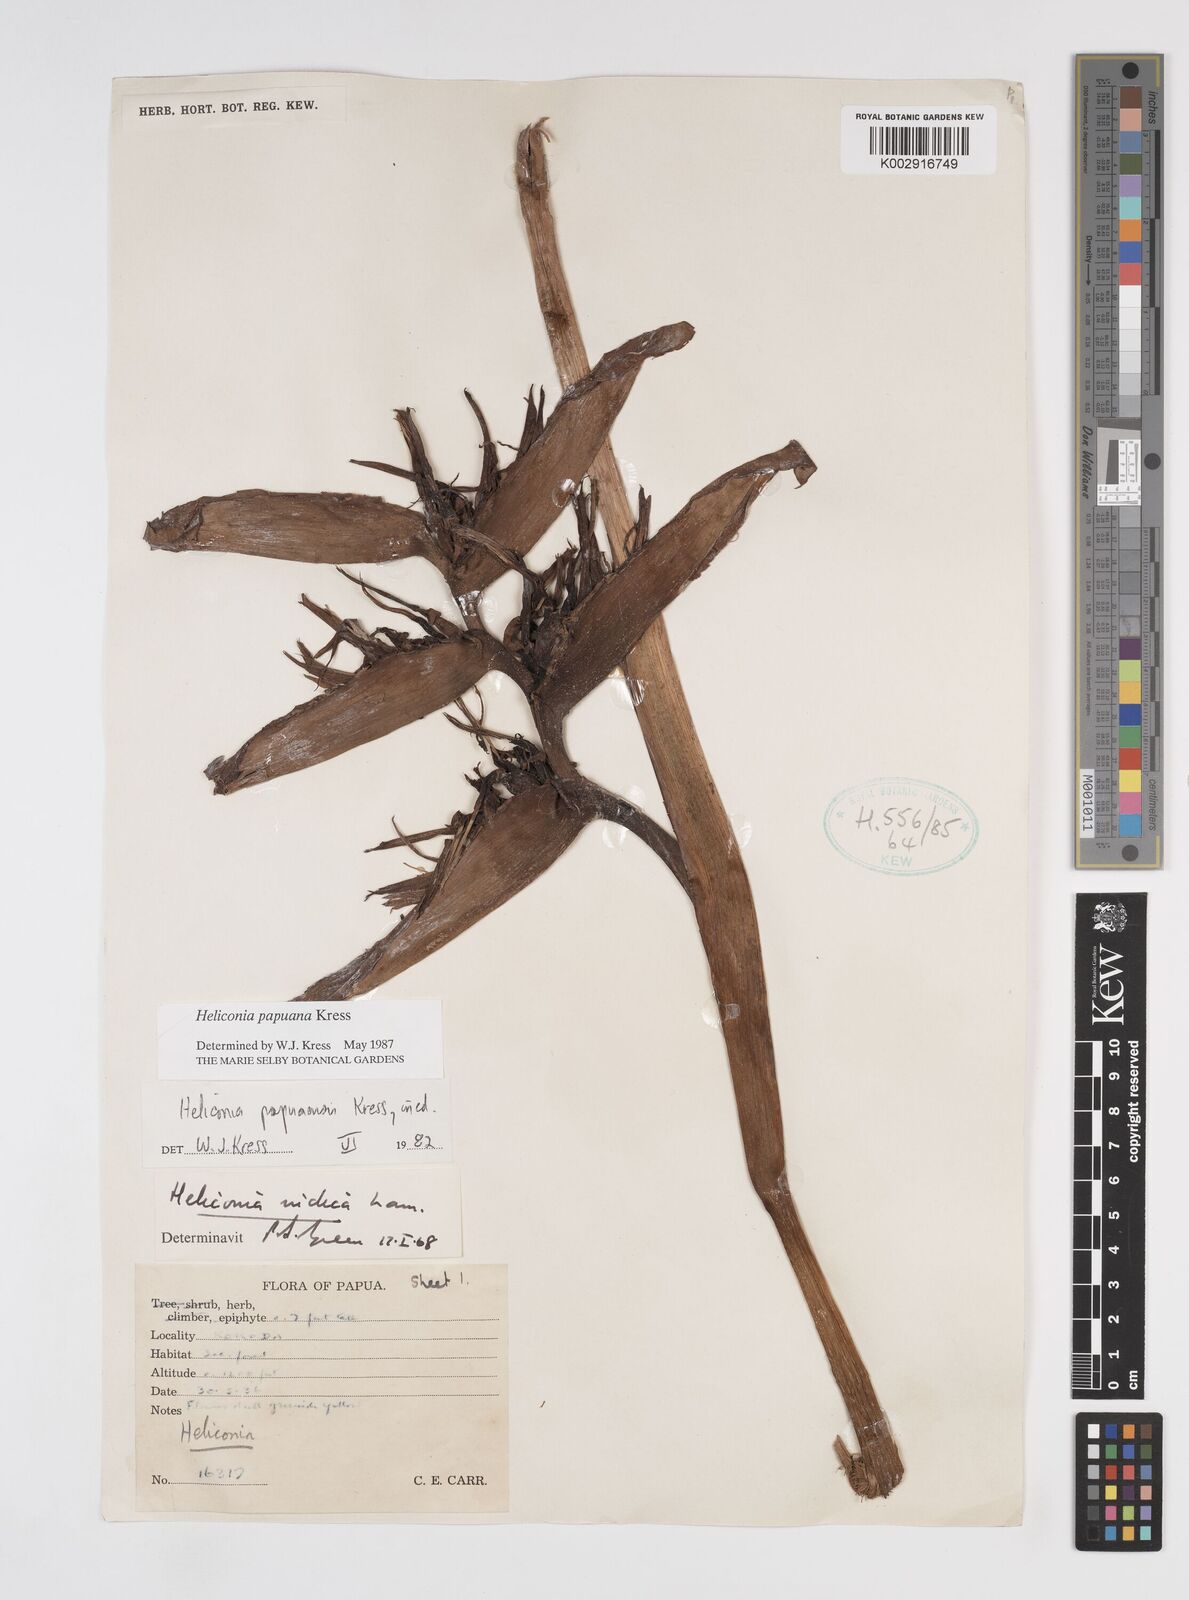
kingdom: Plantae
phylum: Tracheophyta
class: Liliopsida
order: Zingiberales
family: Heliconiaceae
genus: Heliconia
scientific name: Heliconia papuana
